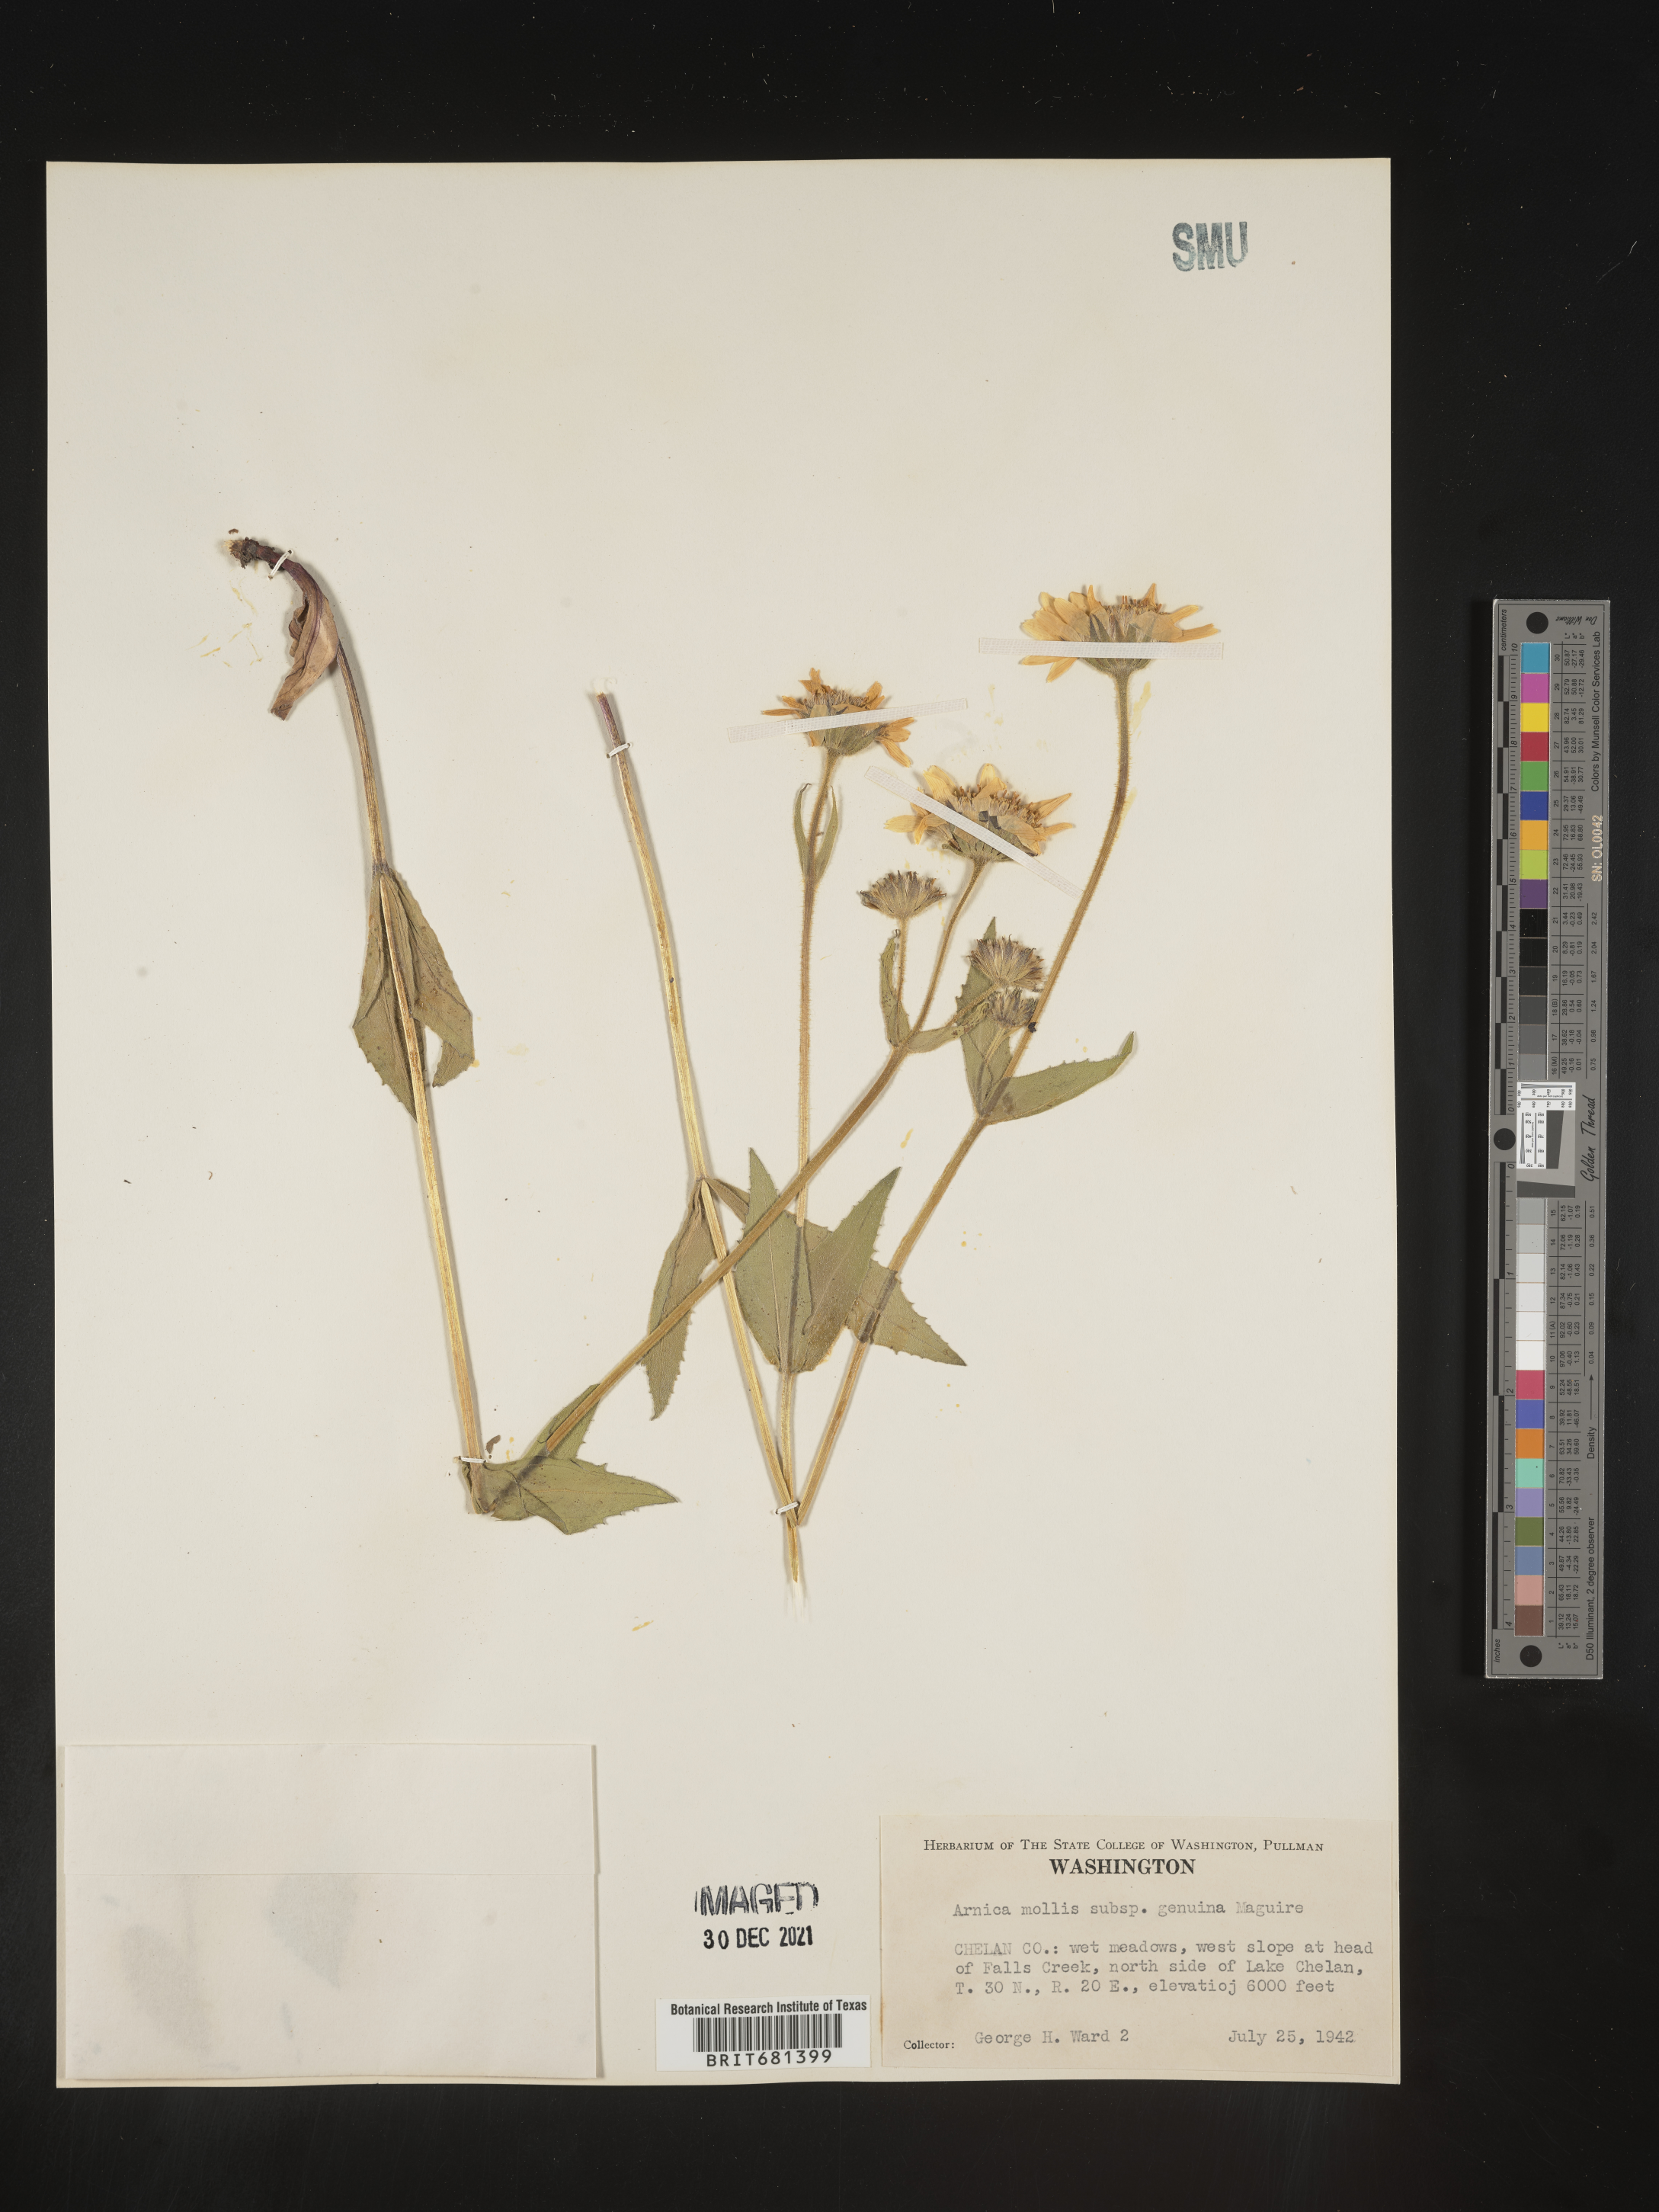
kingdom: Plantae
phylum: Tracheophyta
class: Magnoliopsida
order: Asterales
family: Asteraceae
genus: Arnica
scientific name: Arnica mollis
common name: Hairy arnica
